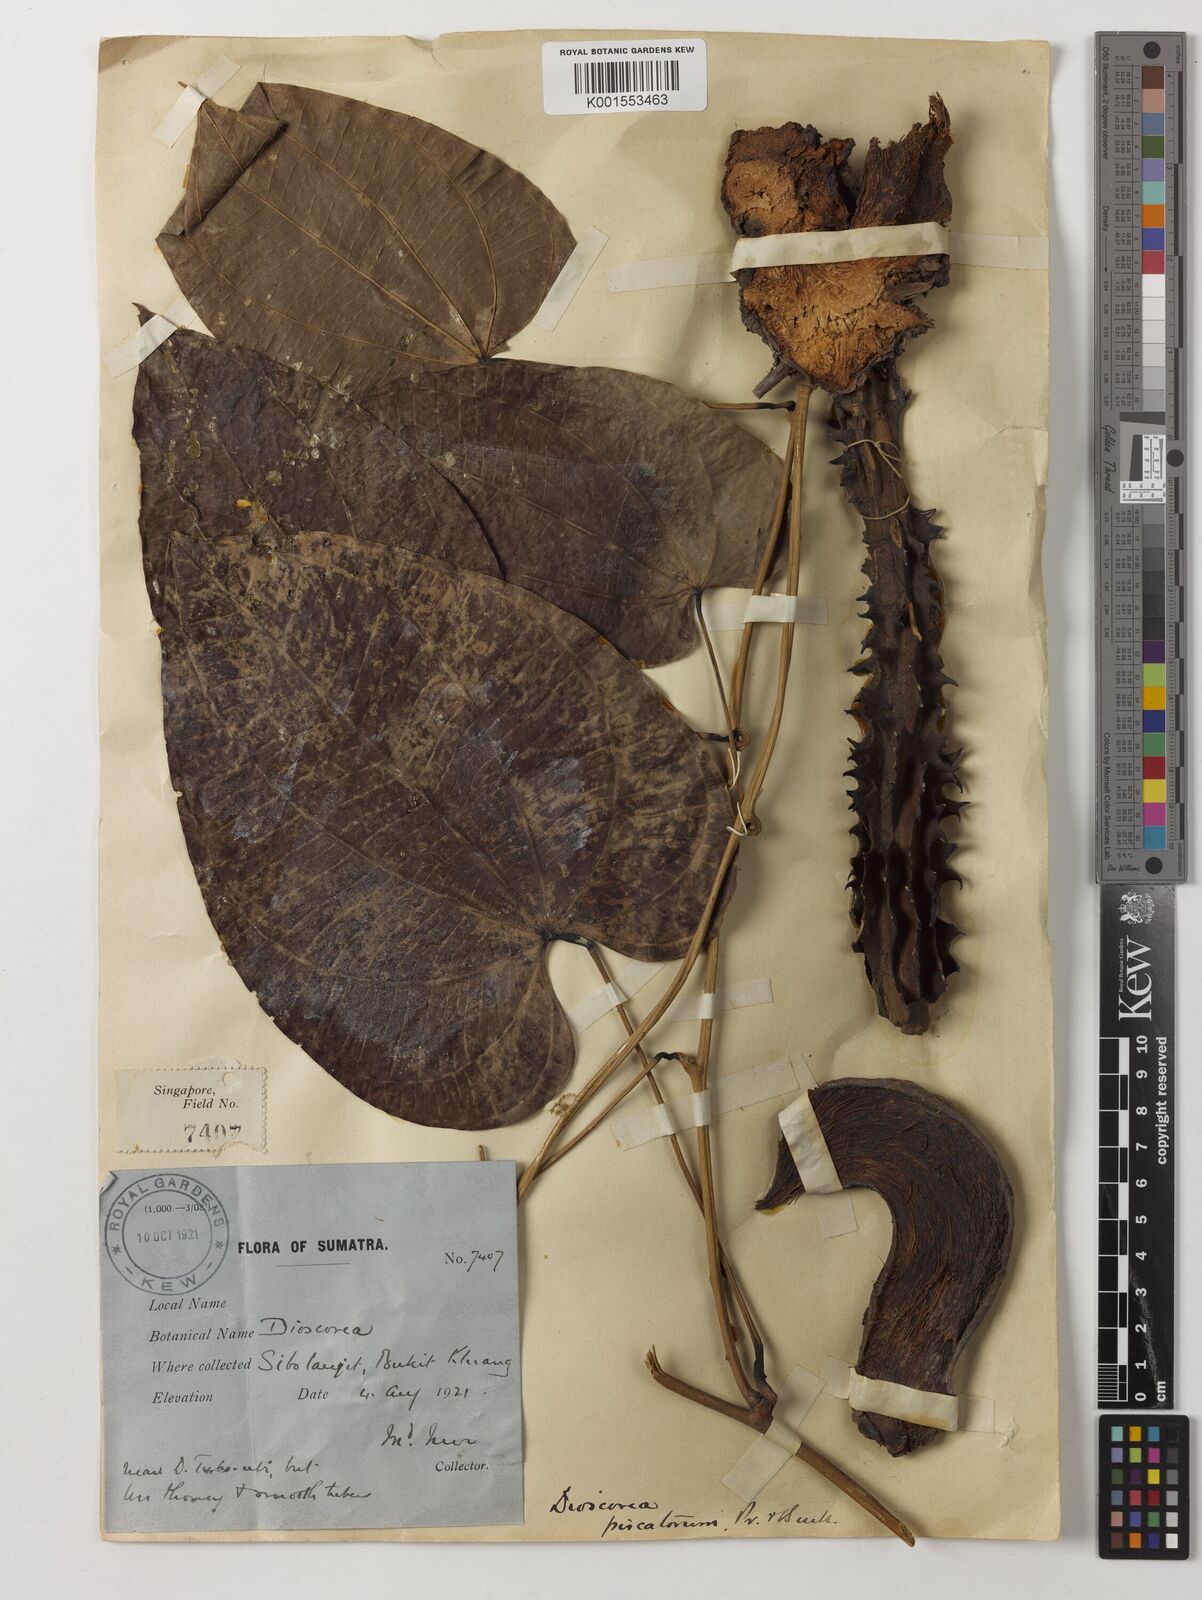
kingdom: Plantae
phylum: Tracheophyta
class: Liliopsida
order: Dioscoreales
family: Dioscoreaceae
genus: Dioscorea
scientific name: Dioscorea piscatorum
